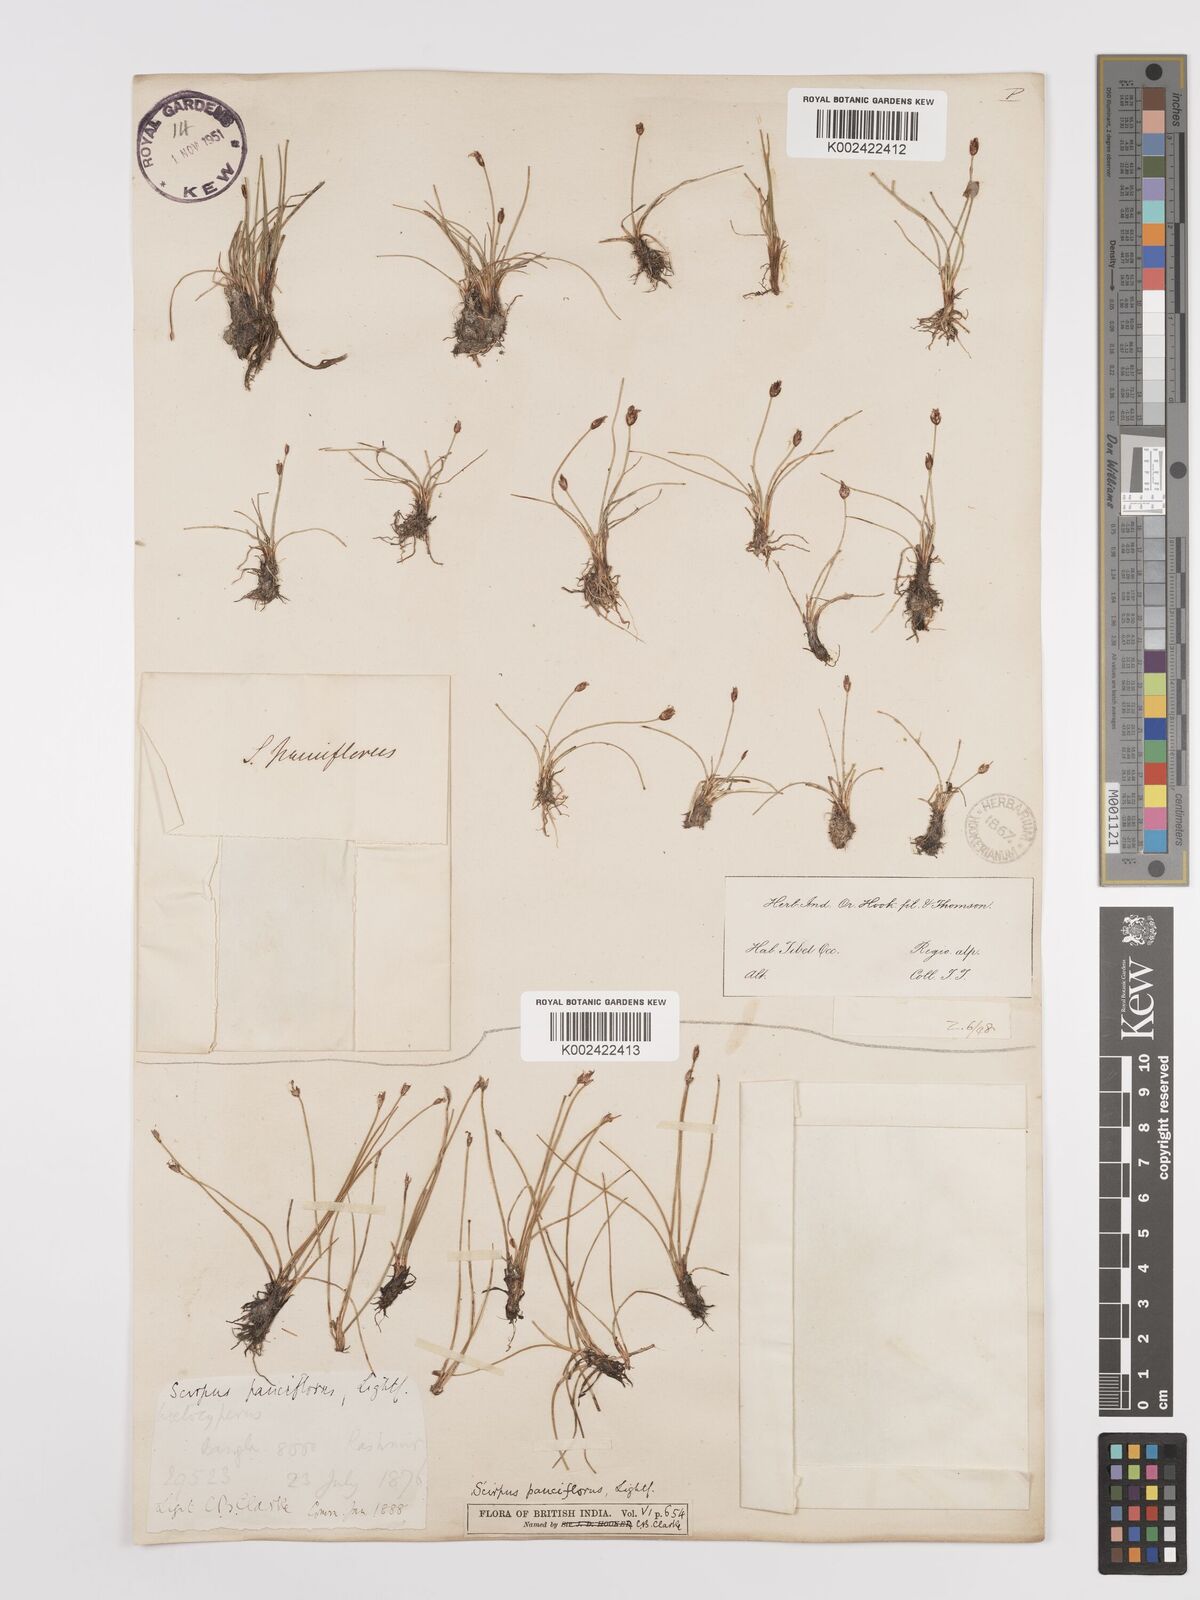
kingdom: Plantae
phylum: Tracheophyta
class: Liliopsida
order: Poales
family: Cyperaceae
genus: Eleocharis
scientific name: Eleocharis quinqueflora
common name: Few-flowered spike-rush
